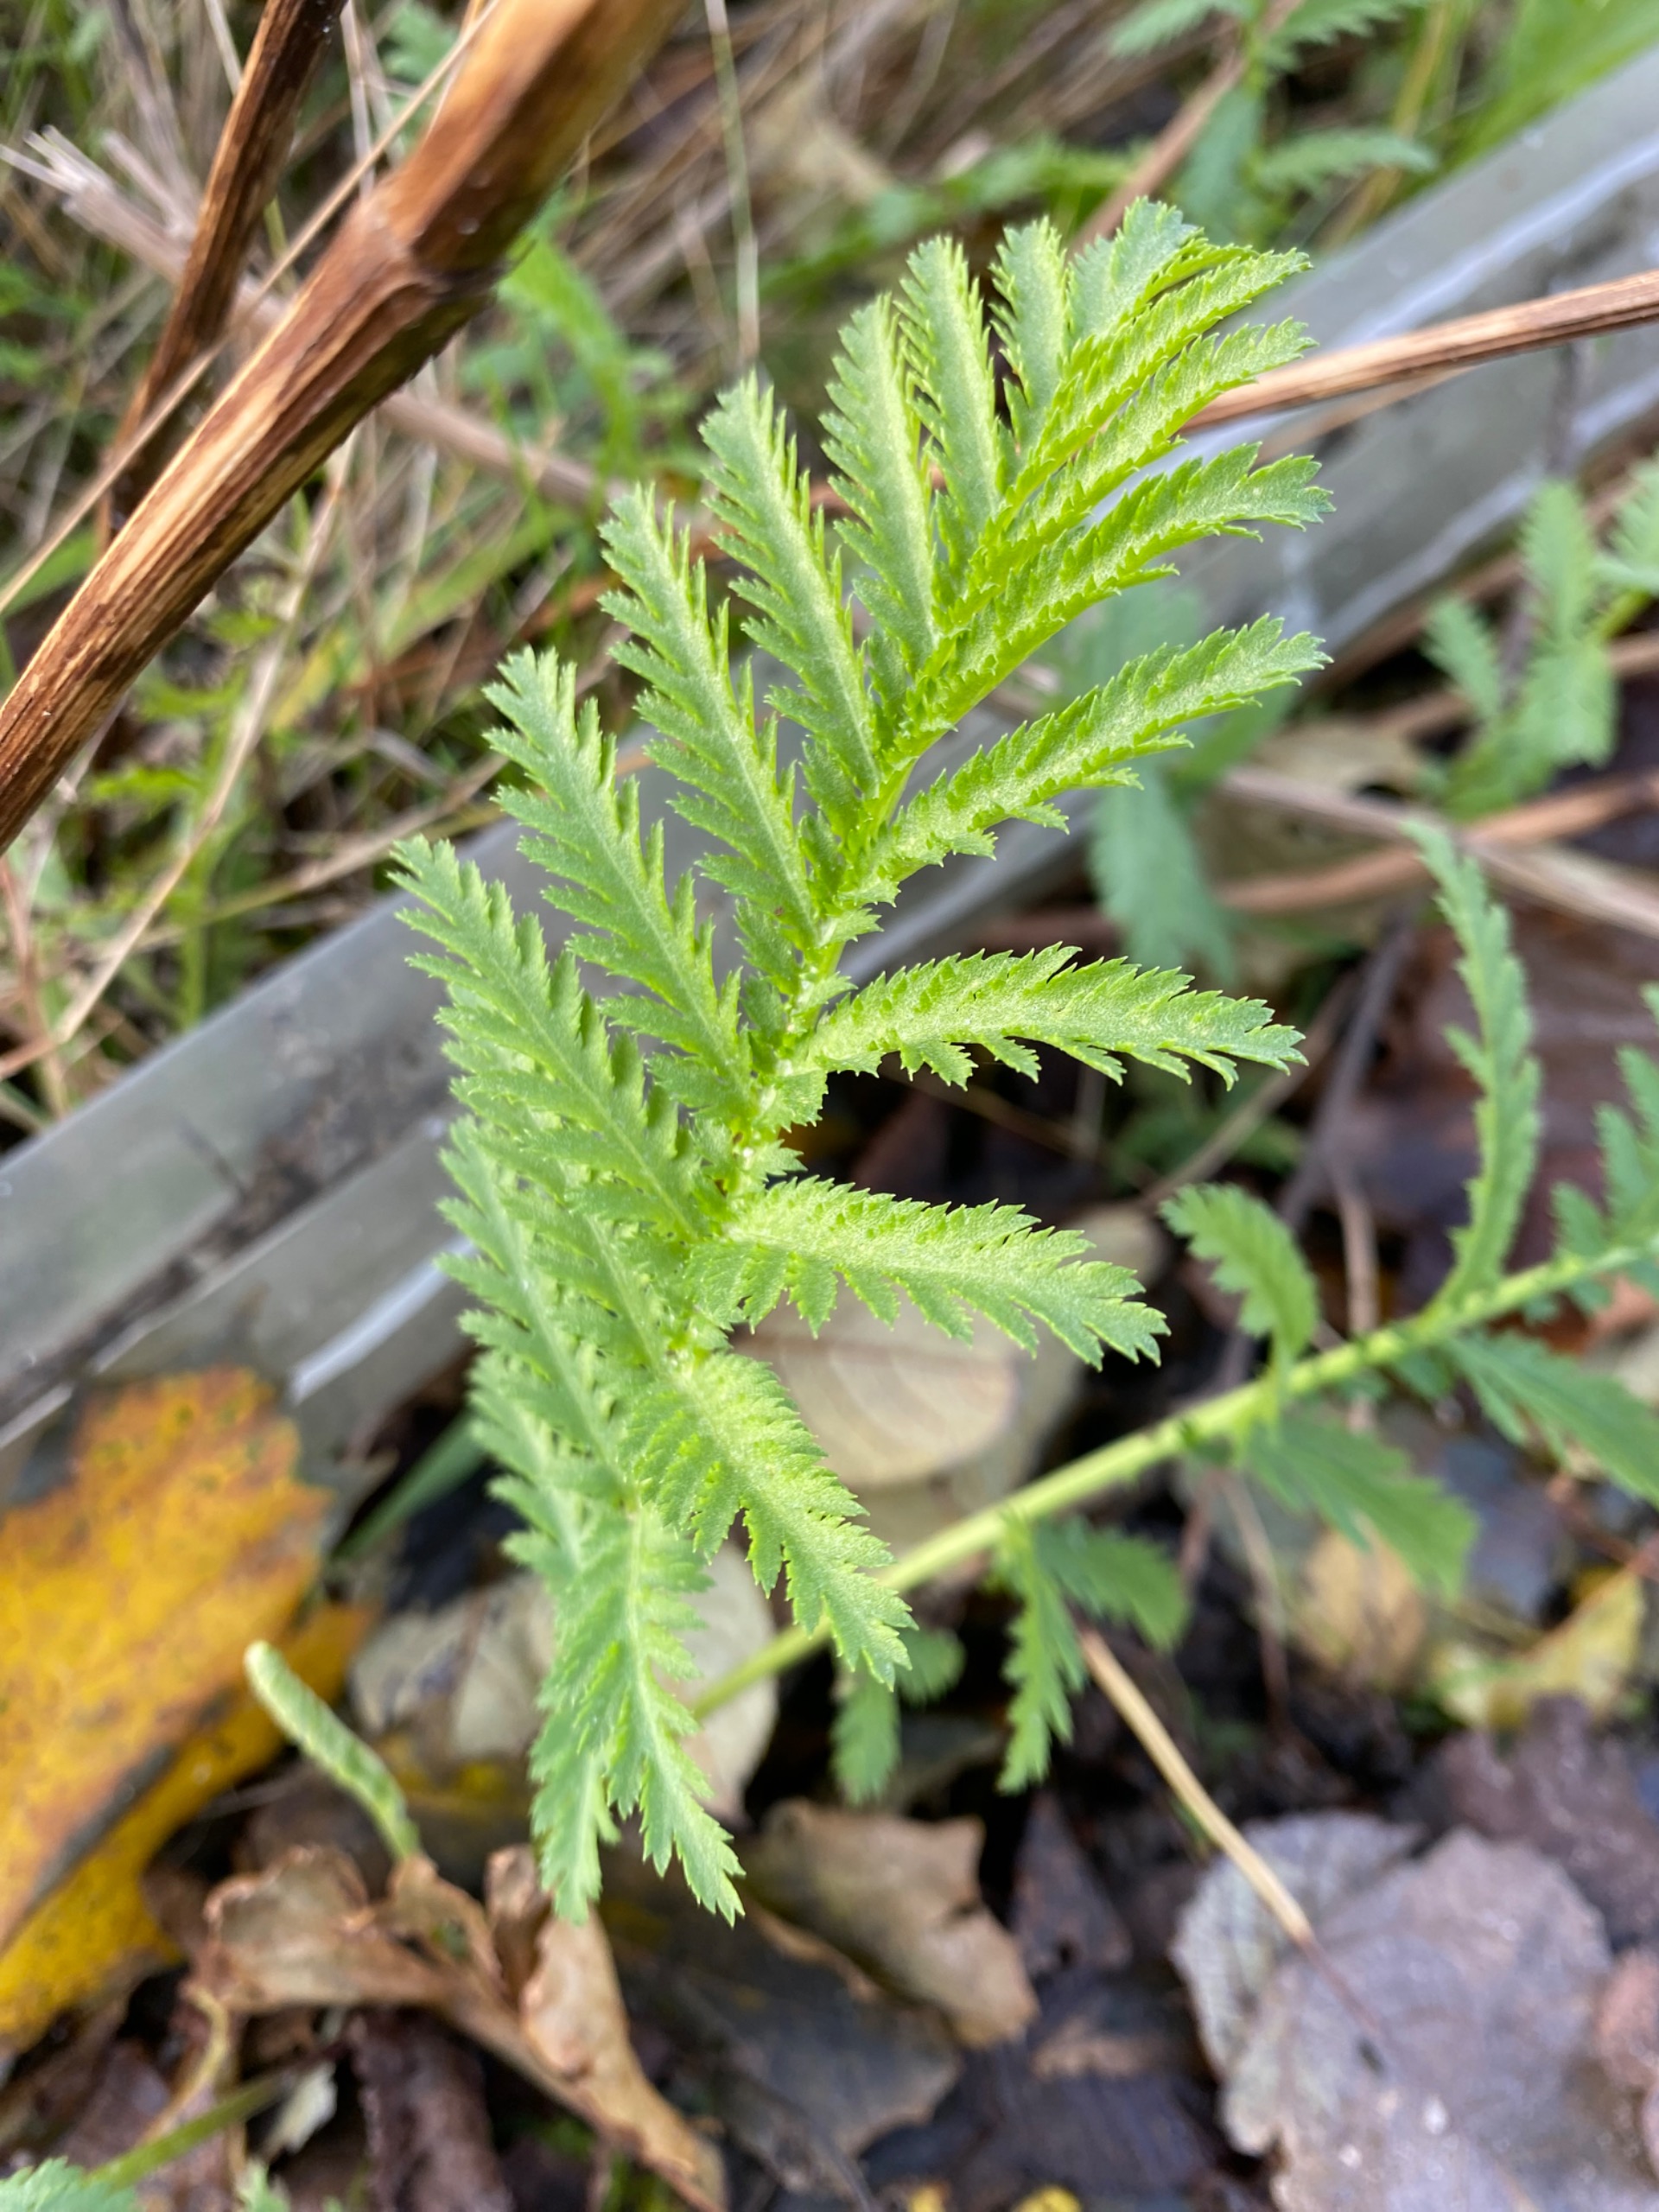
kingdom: Plantae
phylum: Tracheophyta
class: Magnoliopsida
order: Asterales
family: Asteraceae
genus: Tanacetum
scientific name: Tanacetum vulgare
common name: Rejnfan
